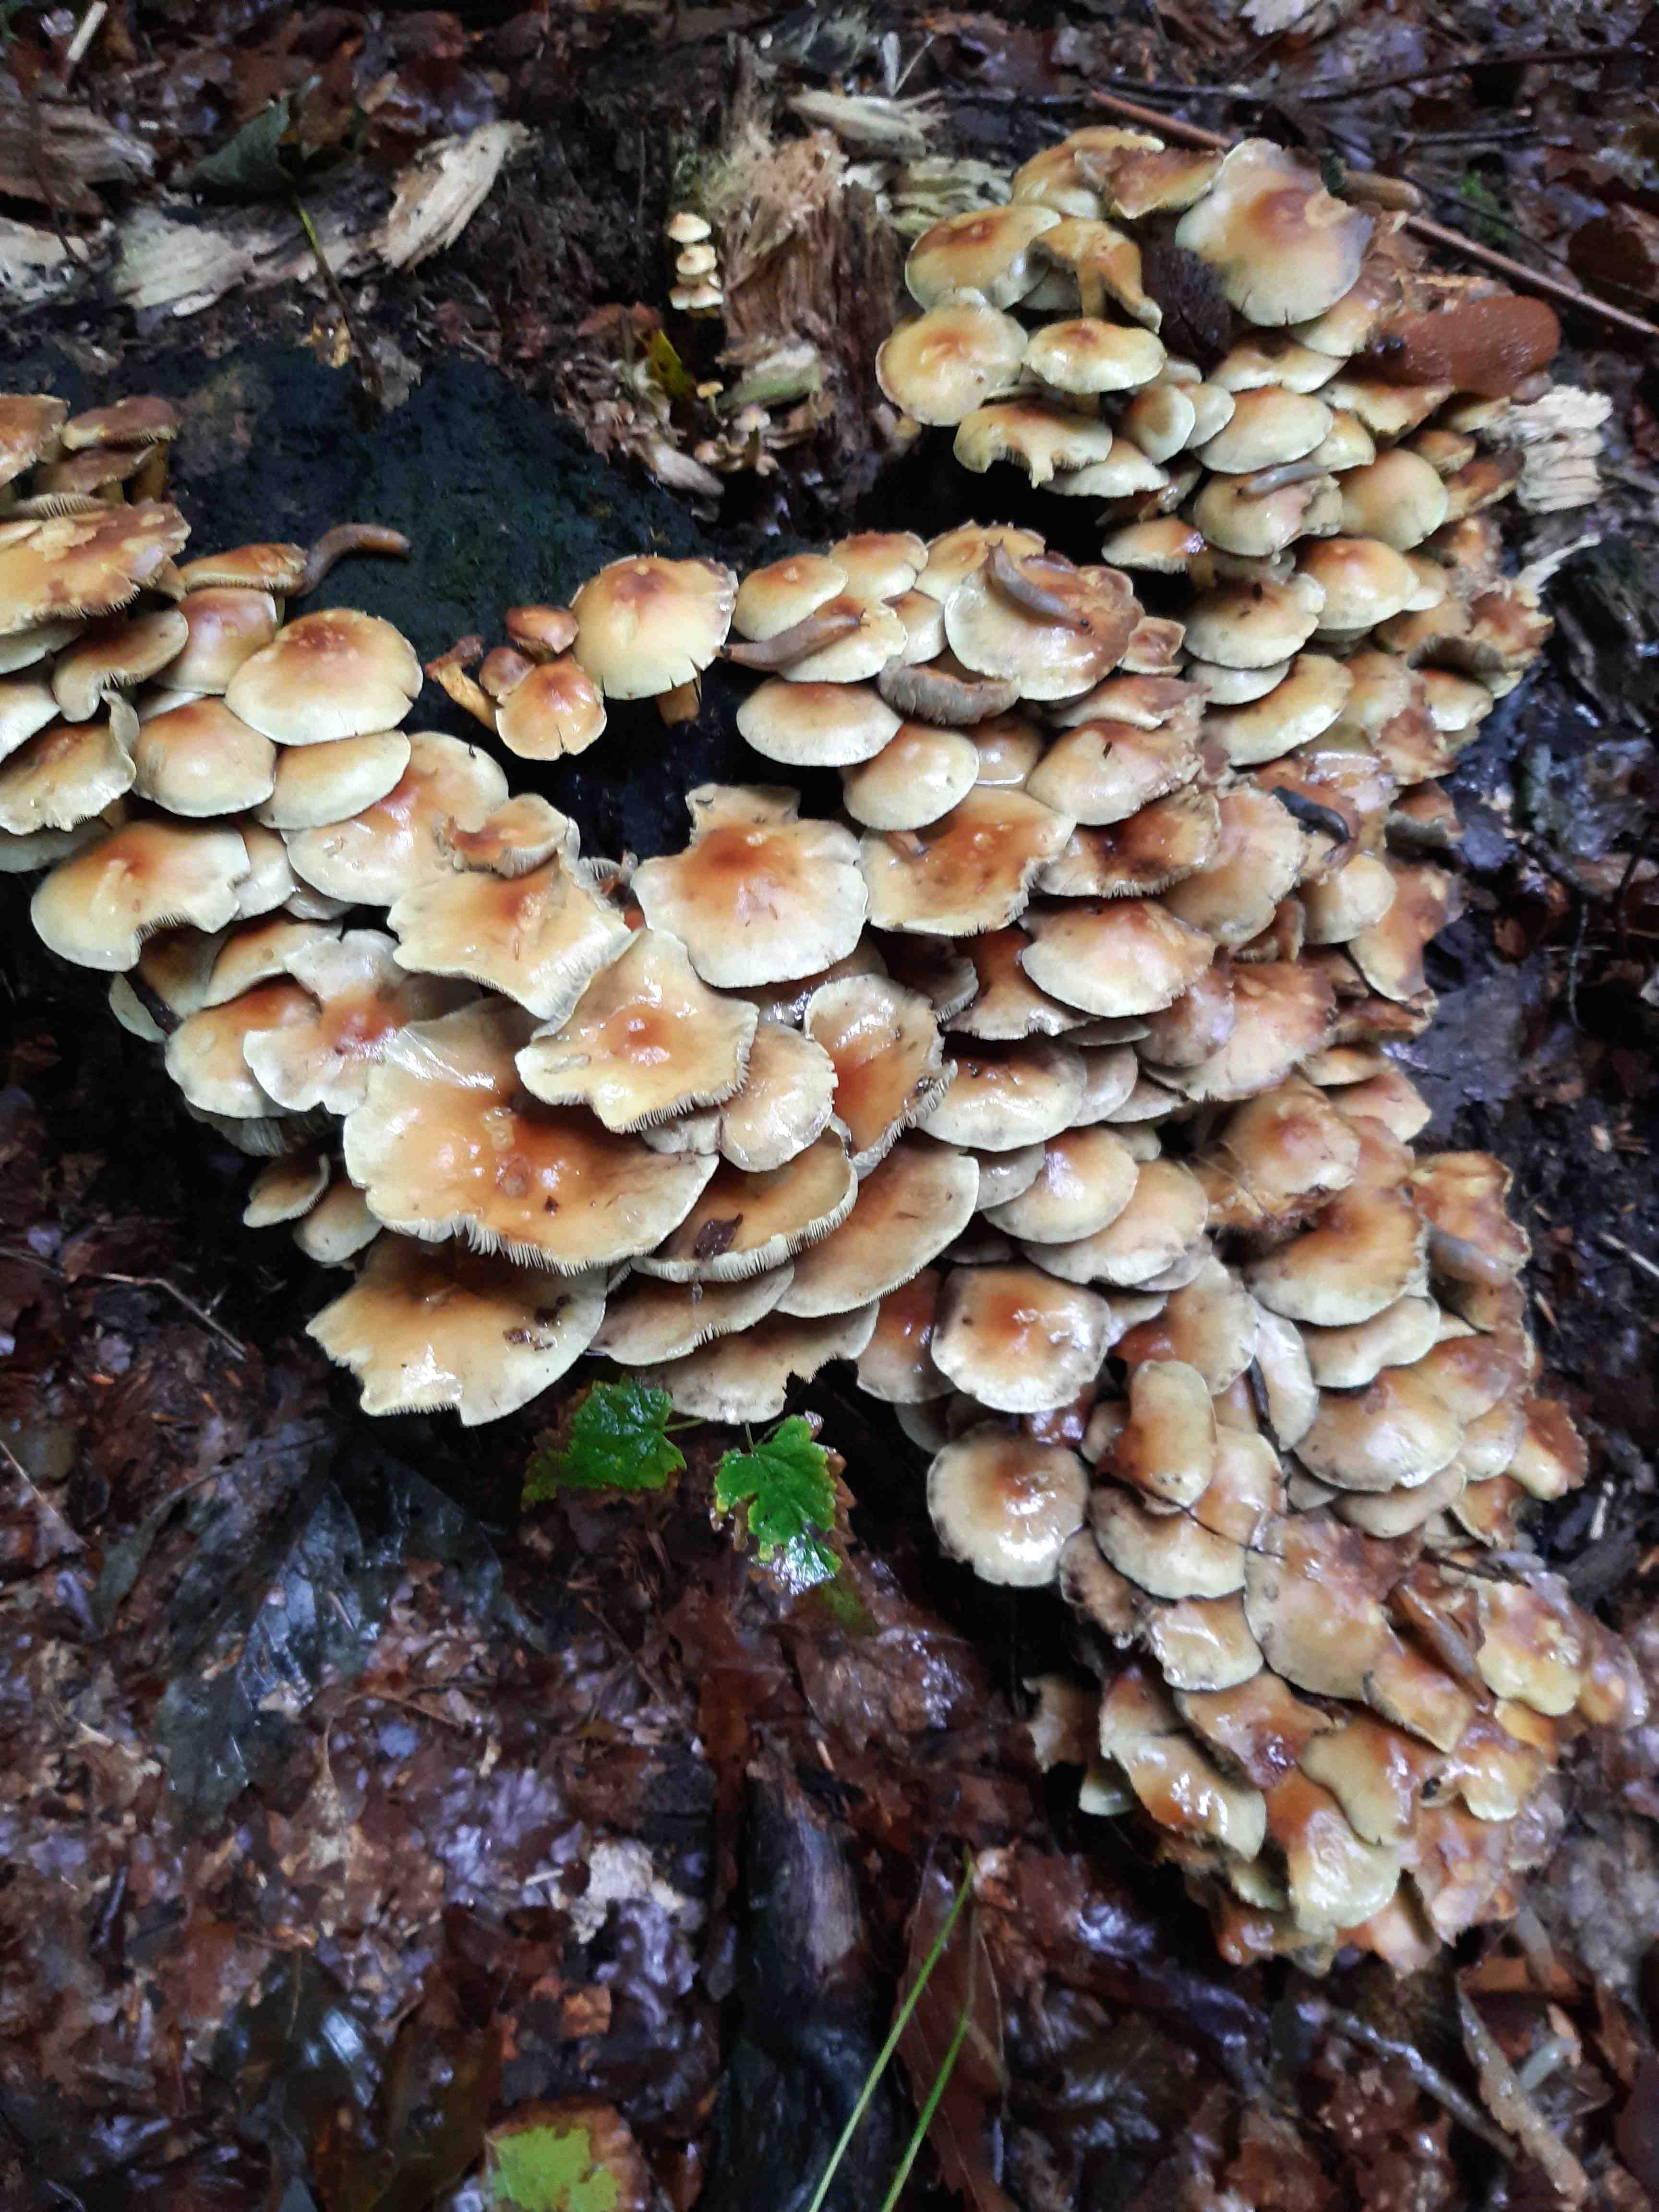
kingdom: Fungi
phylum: Basidiomycota
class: Agaricomycetes
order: Agaricales
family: Strophariaceae
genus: Hypholoma
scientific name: Hypholoma fasciculare
